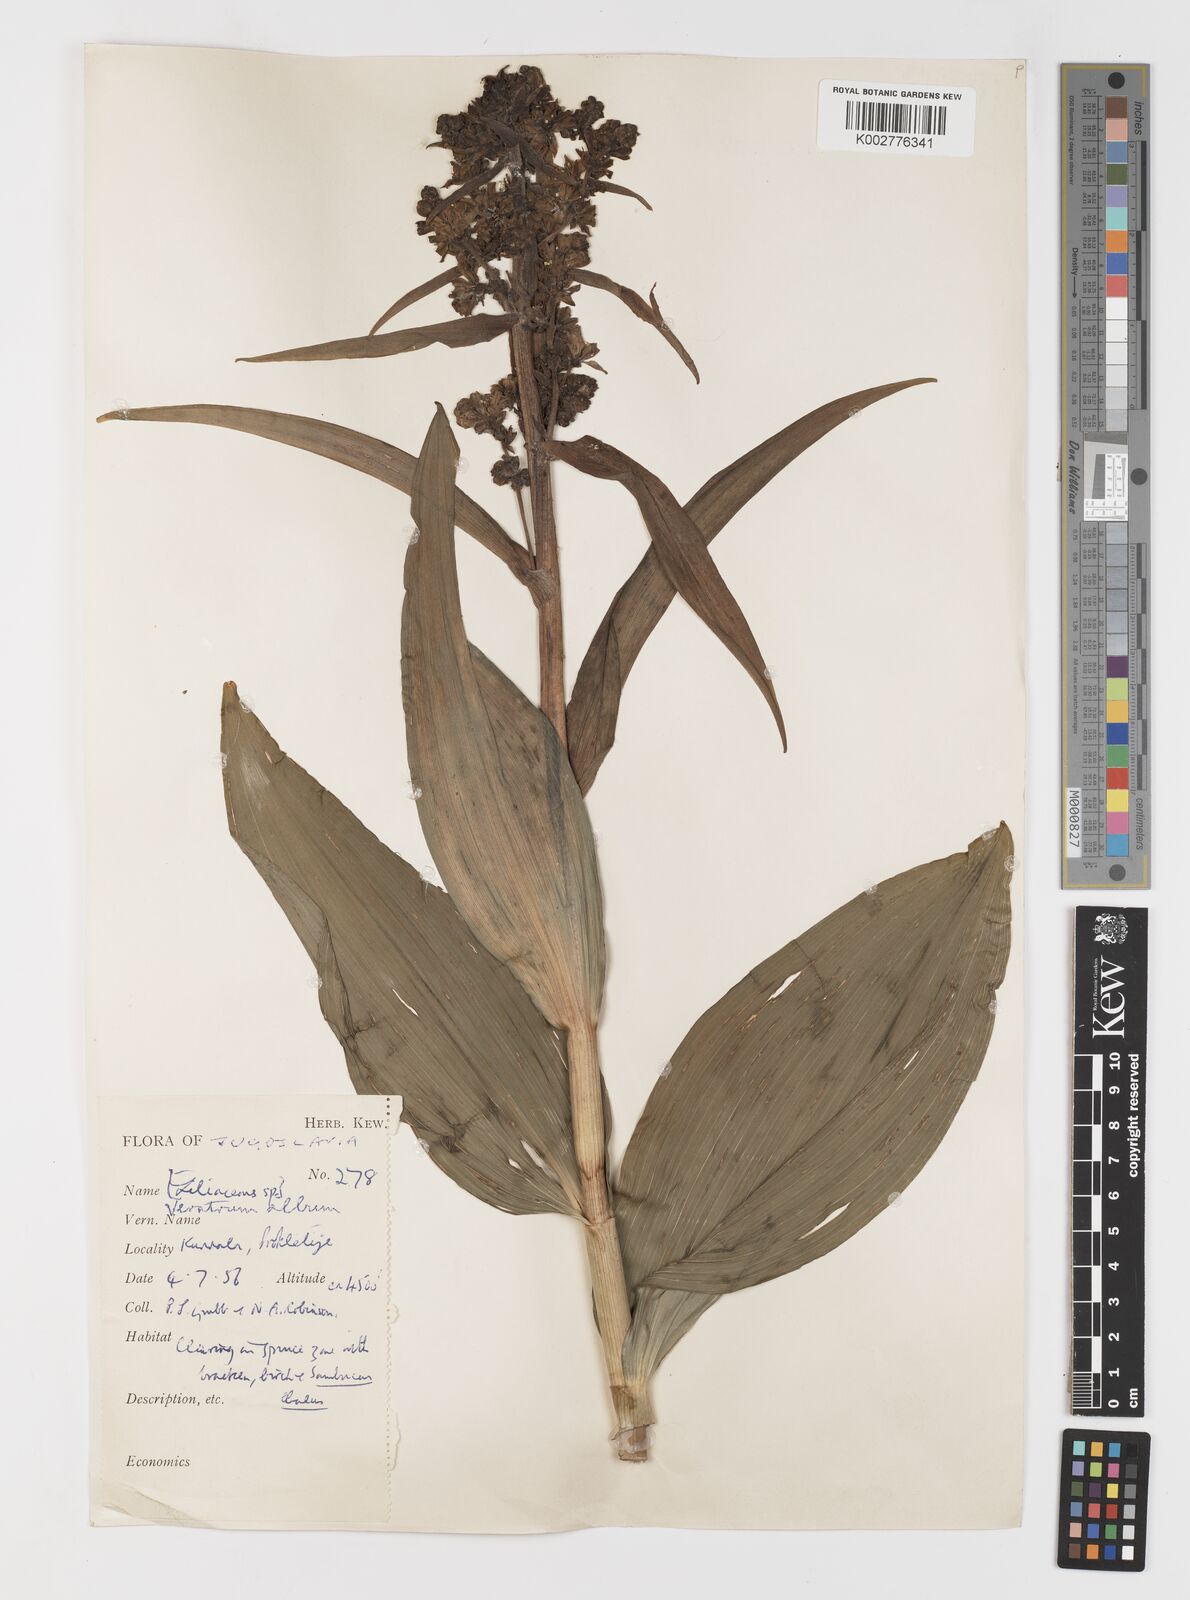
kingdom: Plantae
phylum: Tracheophyta
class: Liliopsida
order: Liliales
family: Melanthiaceae
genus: Veratrum
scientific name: Veratrum album
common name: White veratrum
